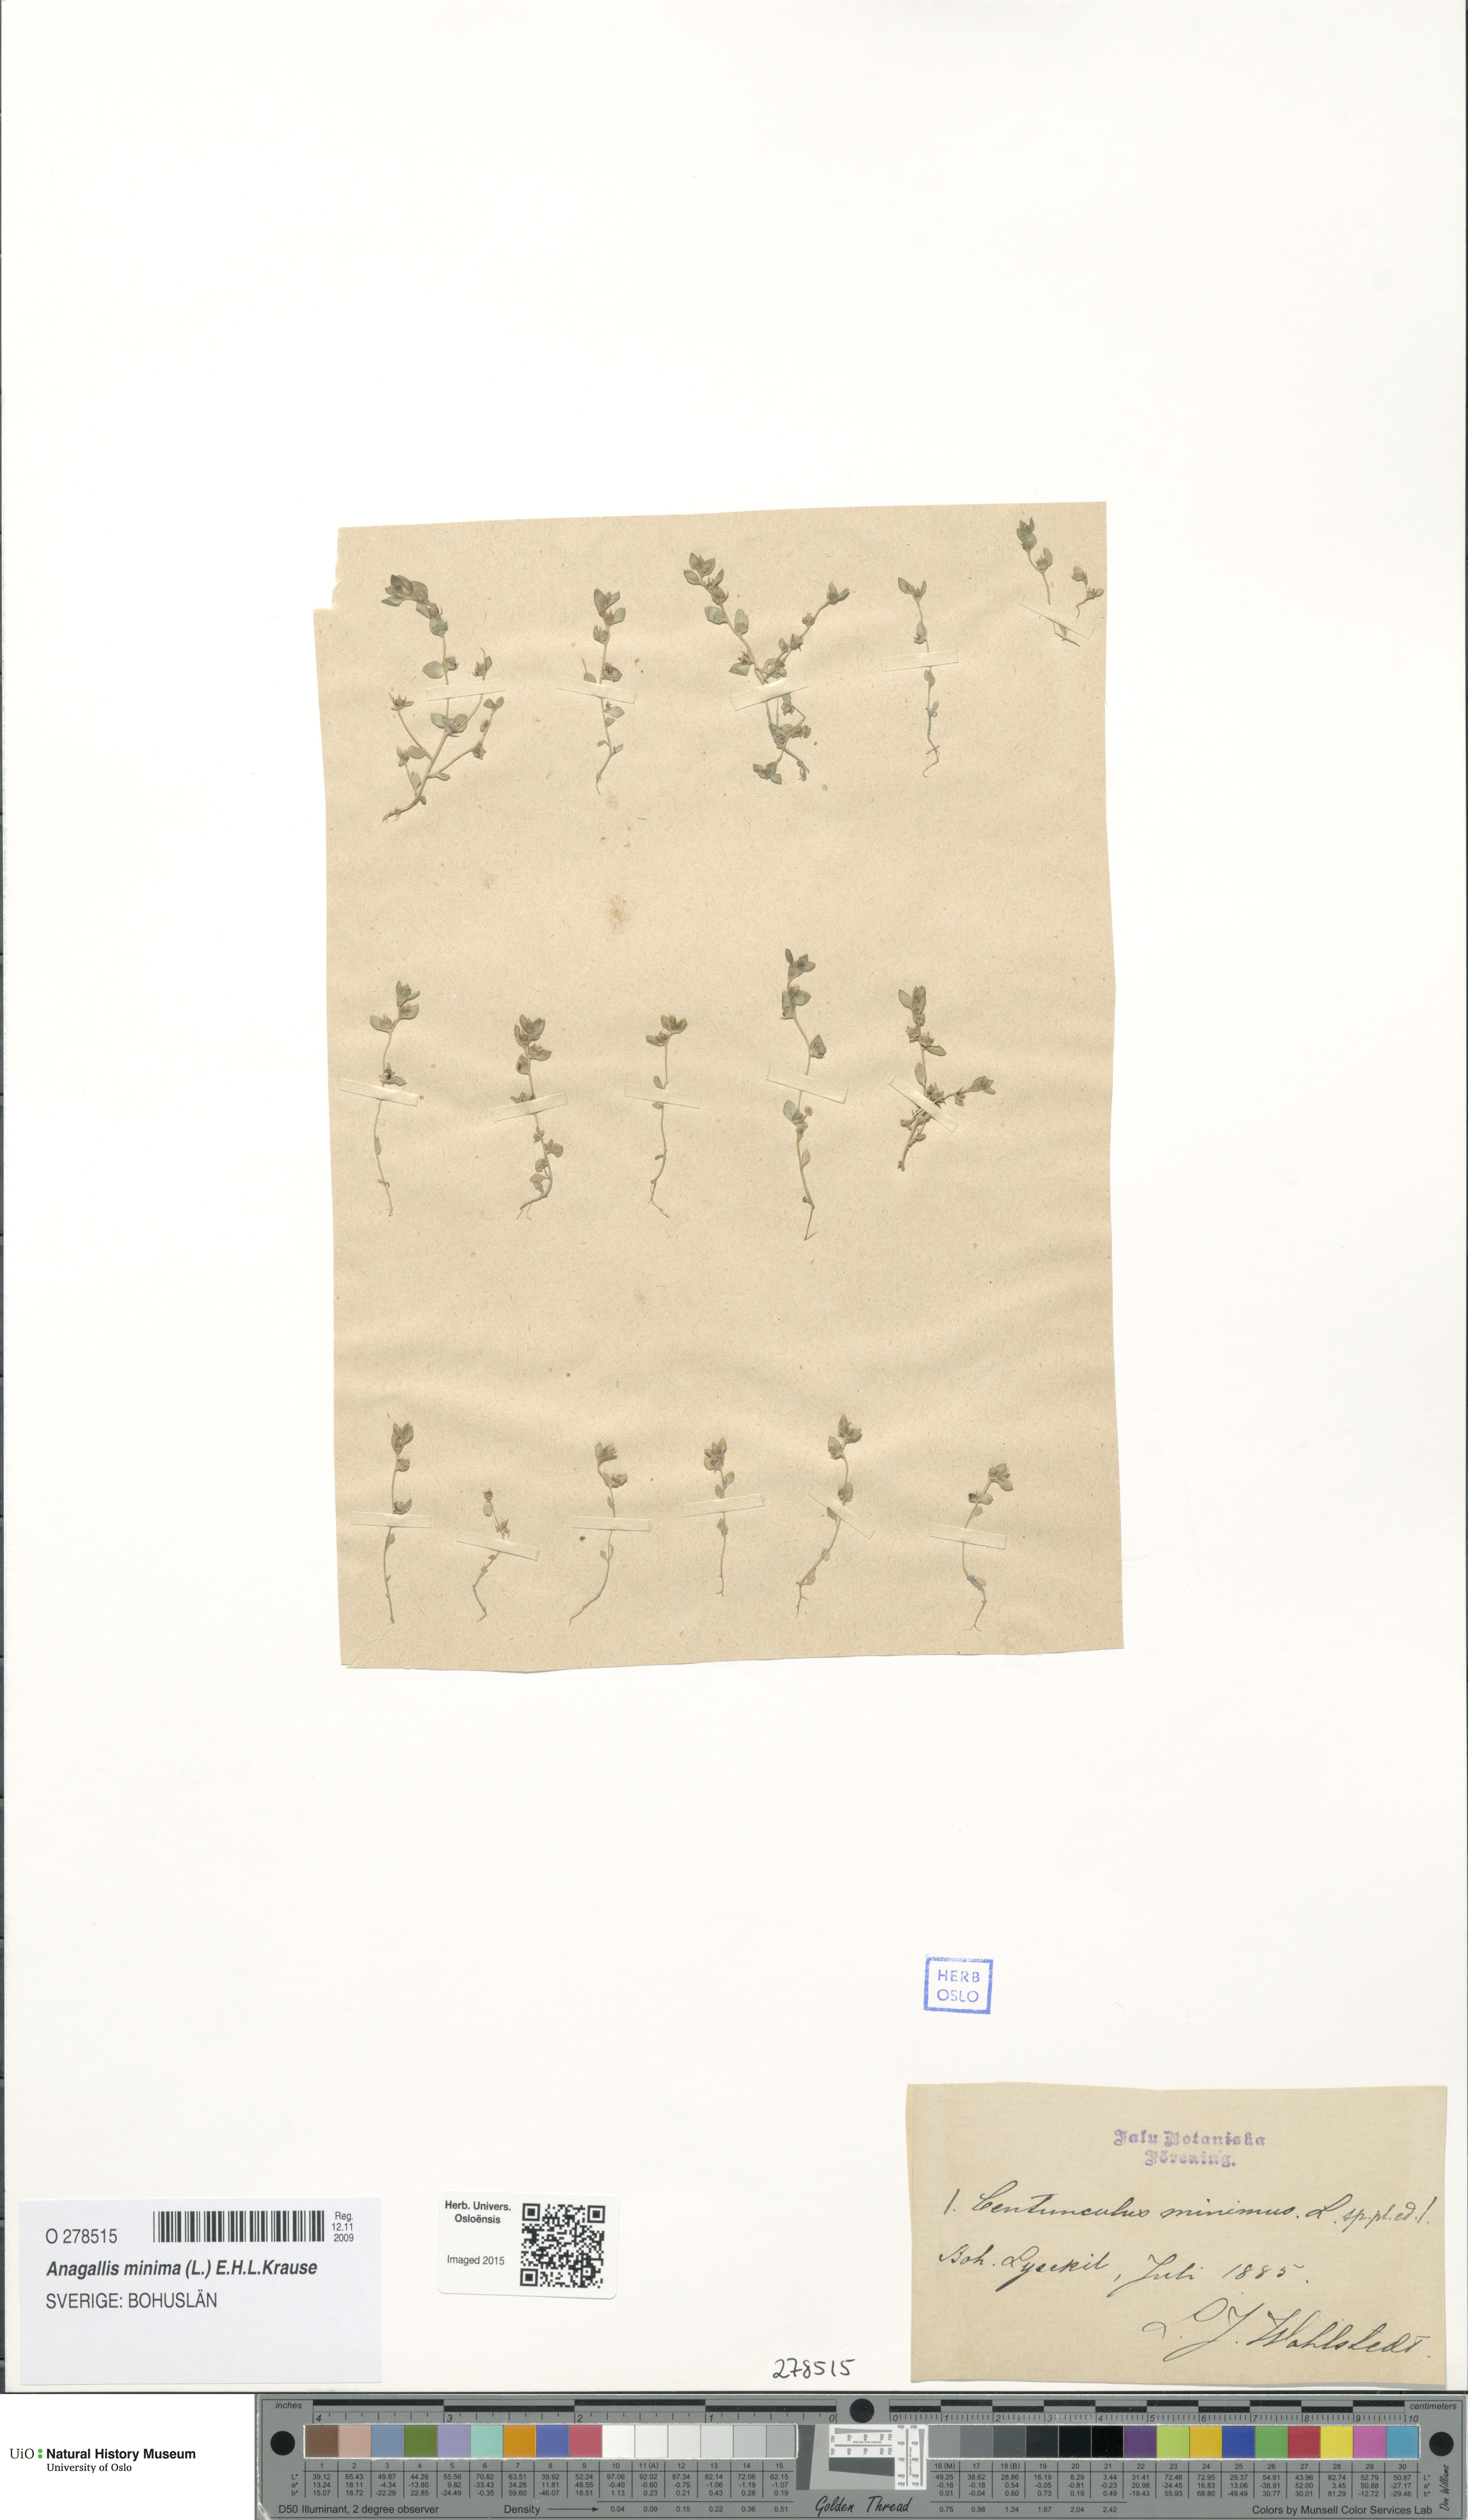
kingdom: Plantae
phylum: Tracheophyta
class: Magnoliopsida
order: Ericales
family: Primulaceae
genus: Lysimachia
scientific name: Lysimachia minima
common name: Chaffweed
